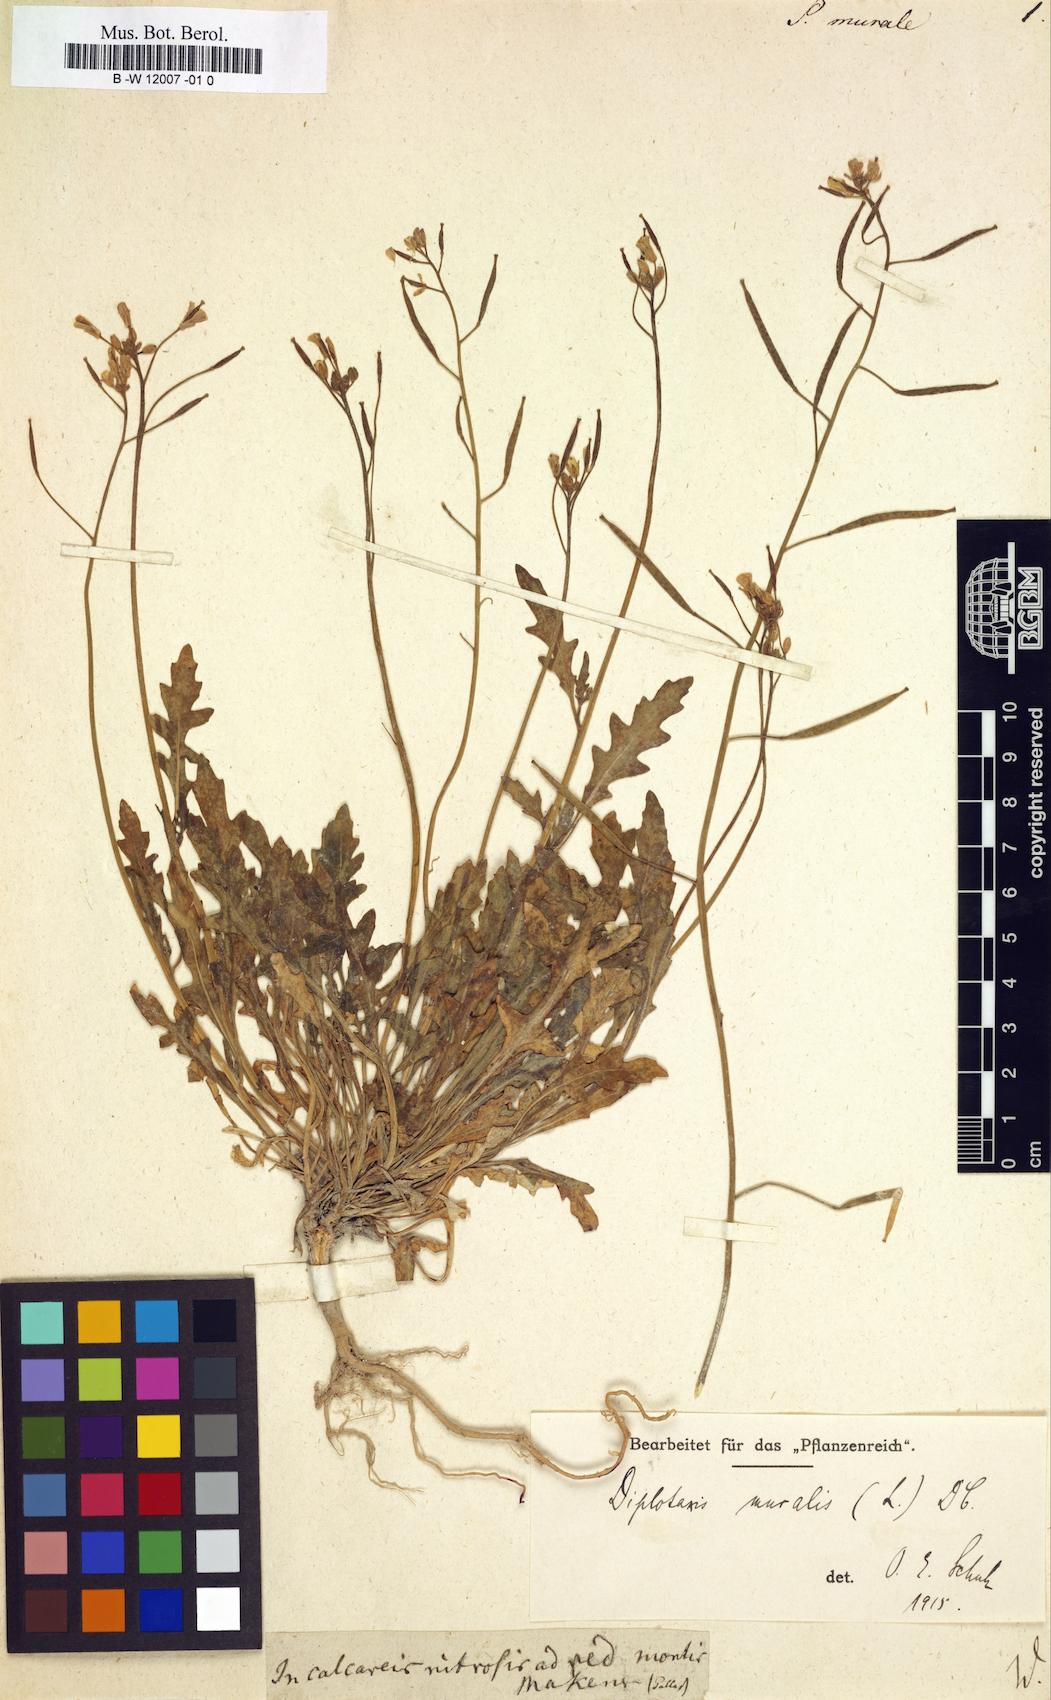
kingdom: Plantae
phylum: Tracheophyta
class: Magnoliopsida
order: Brassicales
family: Brassicaceae
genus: Sisymbrium
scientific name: Sisymbrium murale
